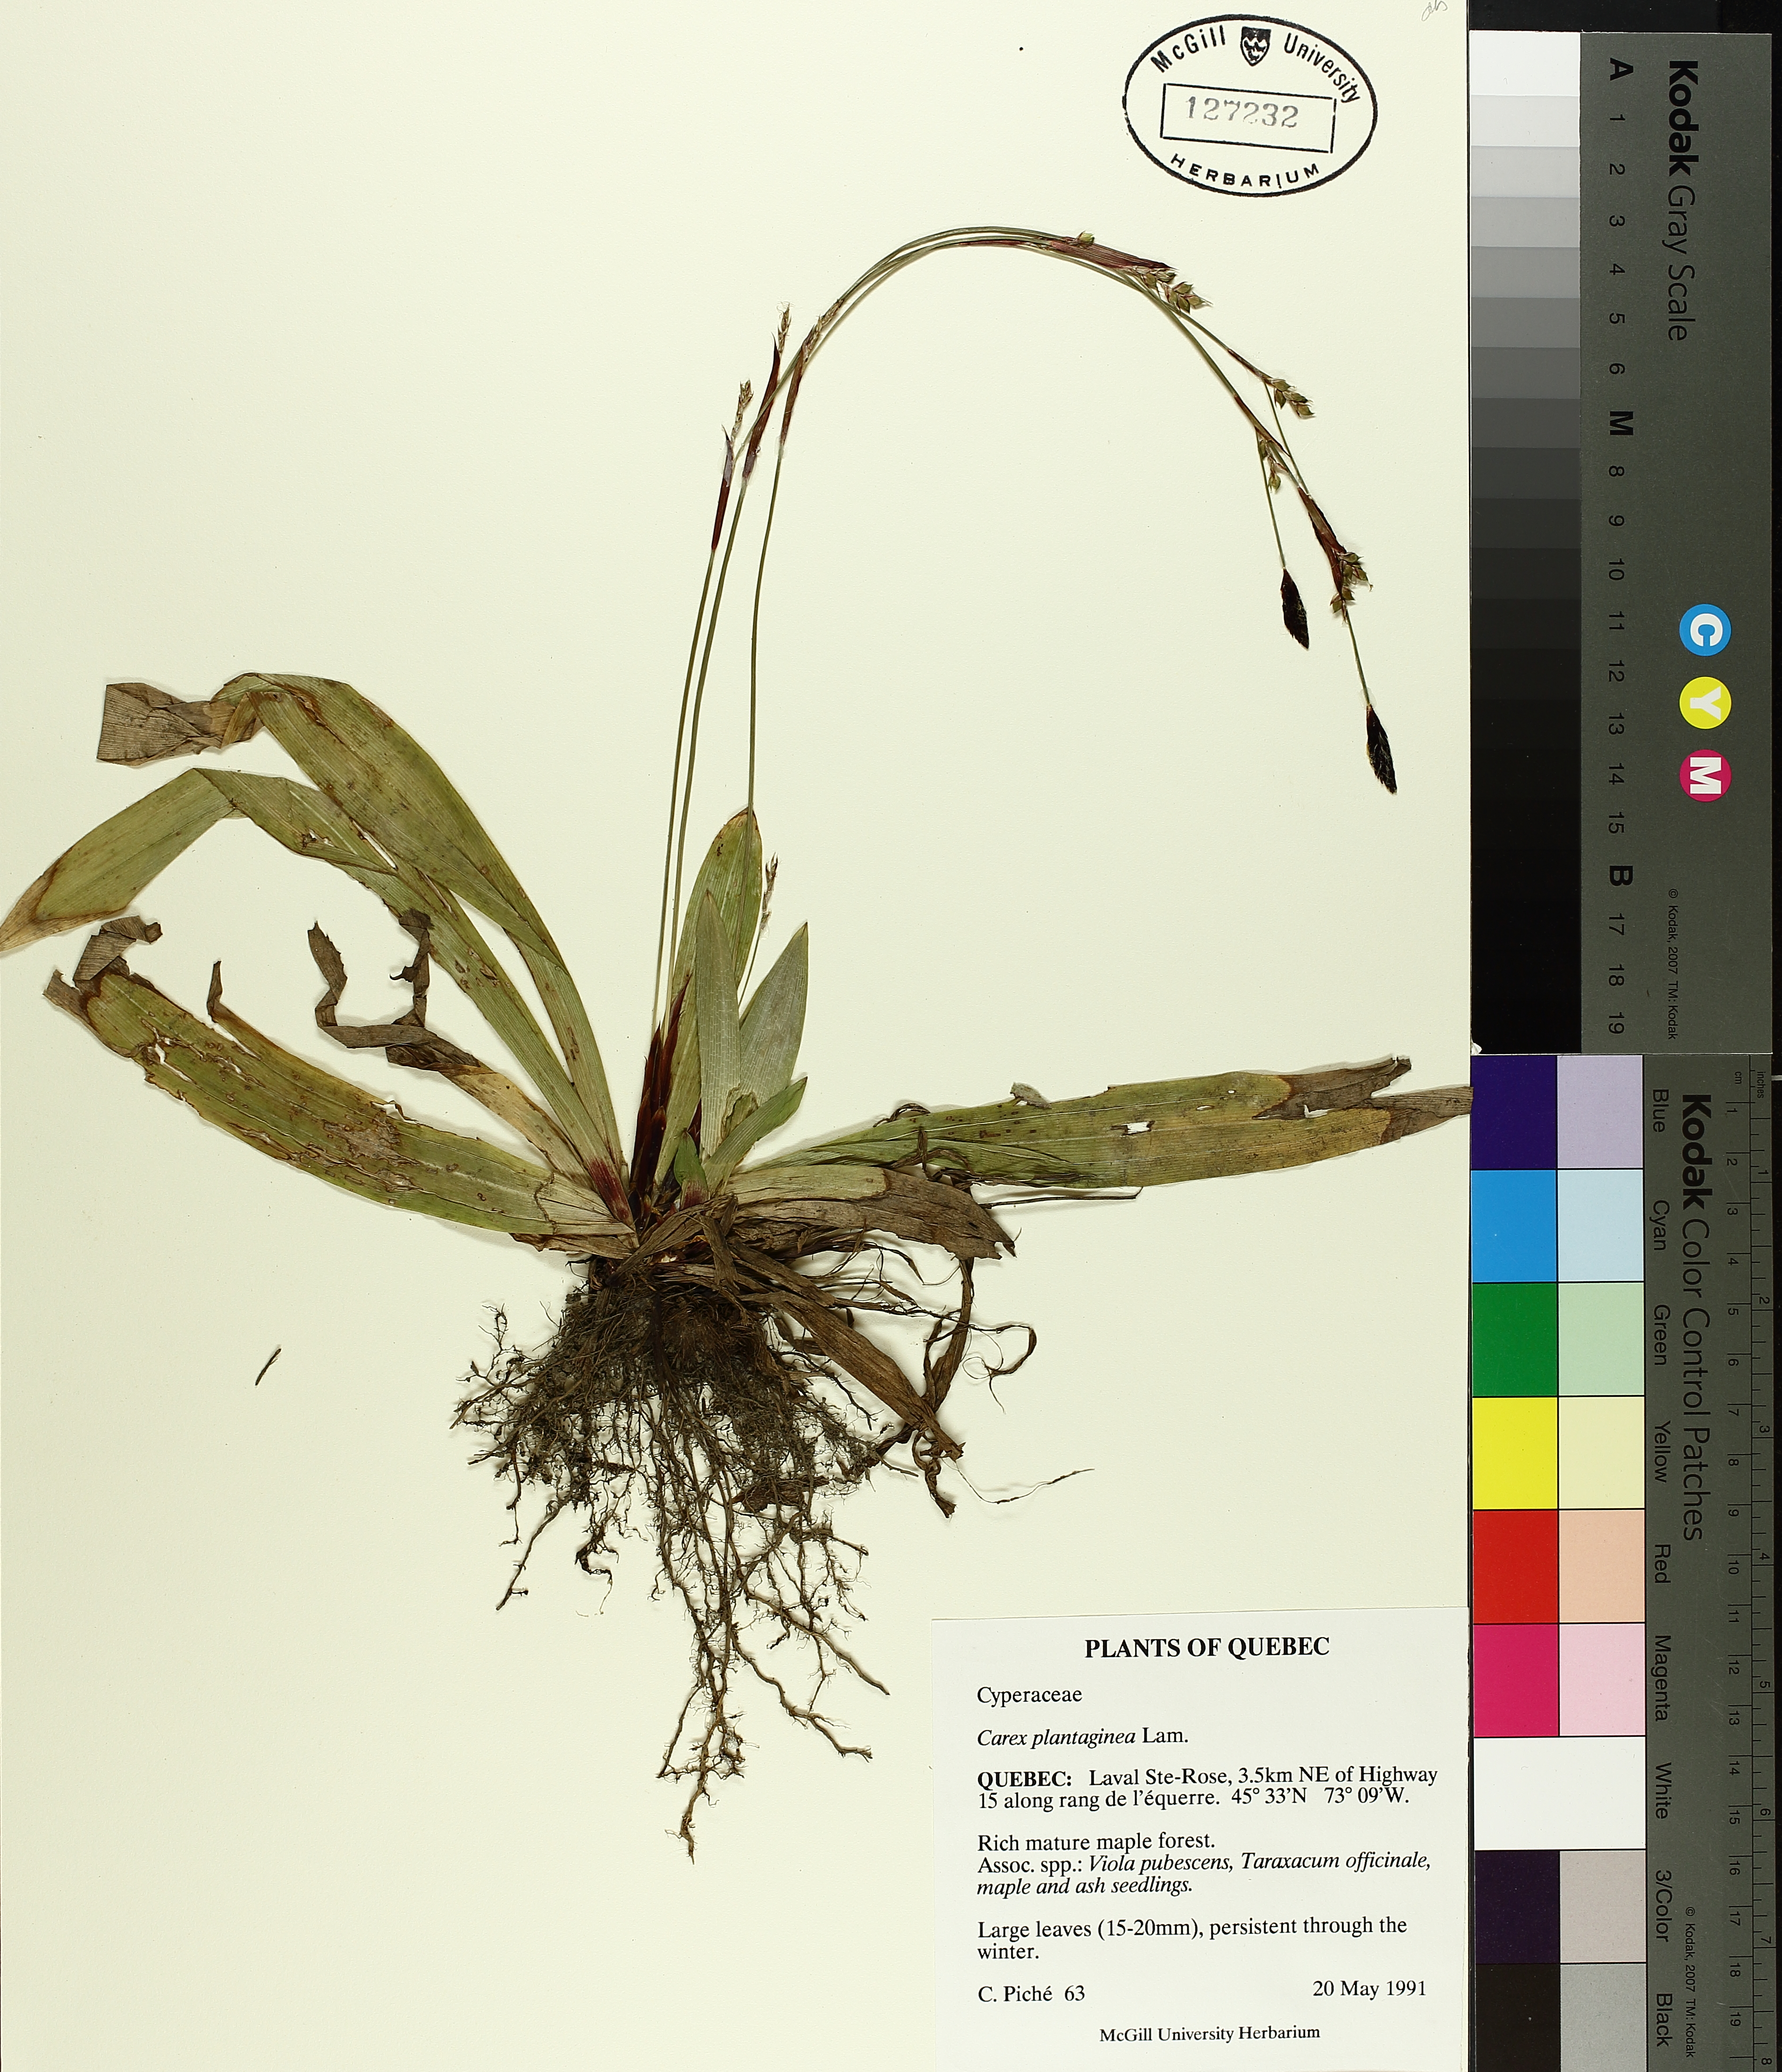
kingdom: Plantae
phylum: Tracheophyta
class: Liliopsida
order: Poales
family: Cyperaceae
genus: Carex
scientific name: Carex plantaginea
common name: Plantain-leaved sedge
